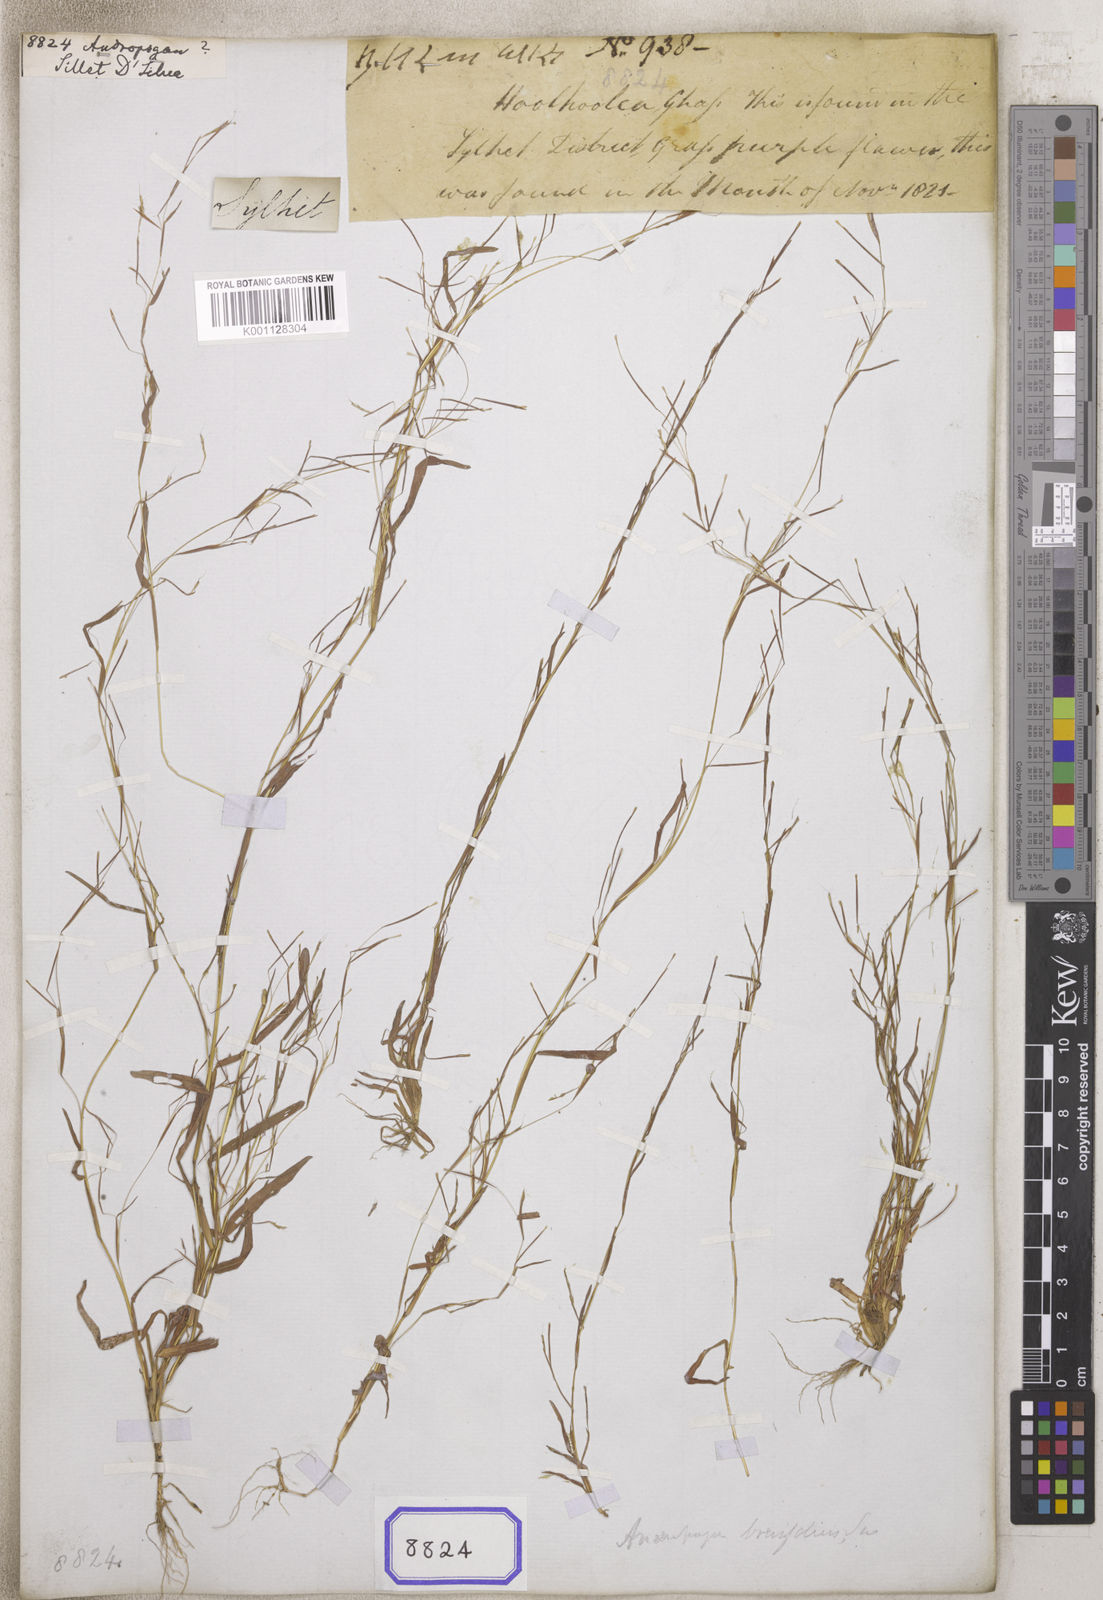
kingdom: Plantae
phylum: Tracheophyta
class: Liliopsida
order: Poales
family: Poaceae
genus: Andropogon
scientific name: Andropogon
